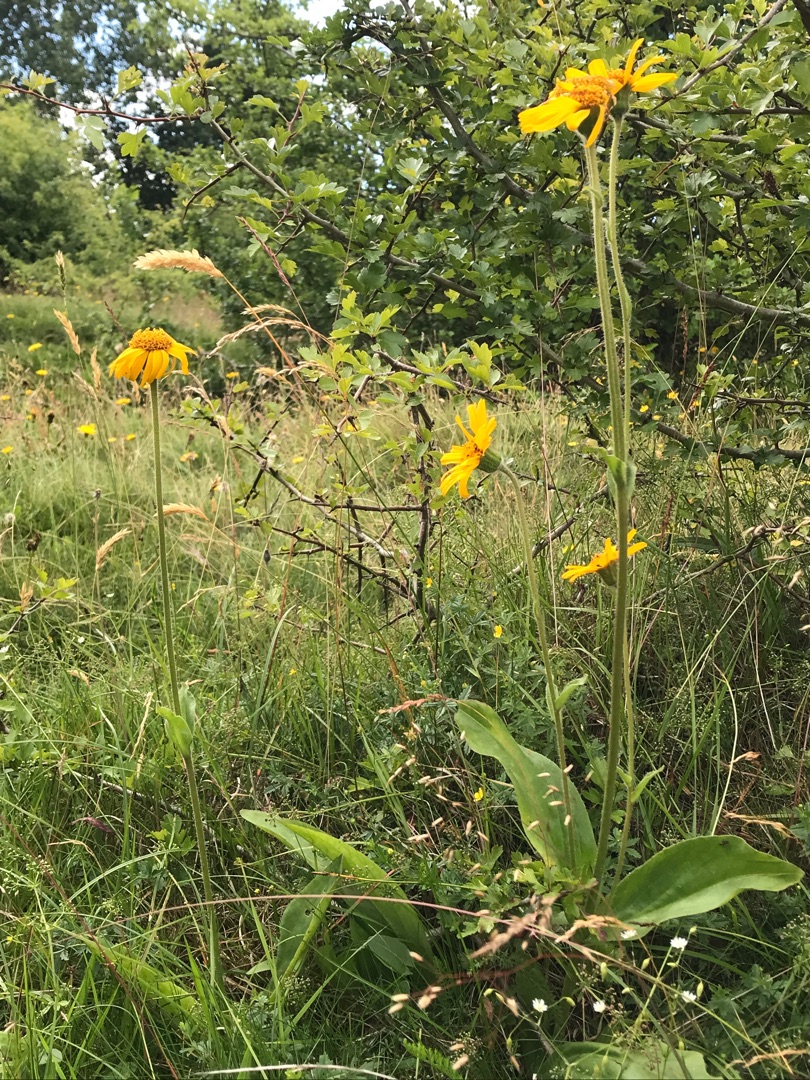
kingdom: Plantae
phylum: Tracheophyta
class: Magnoliopsida
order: Asterales
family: Asteraceae
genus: Arnica
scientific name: Arnica montana
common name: Guldblomme
